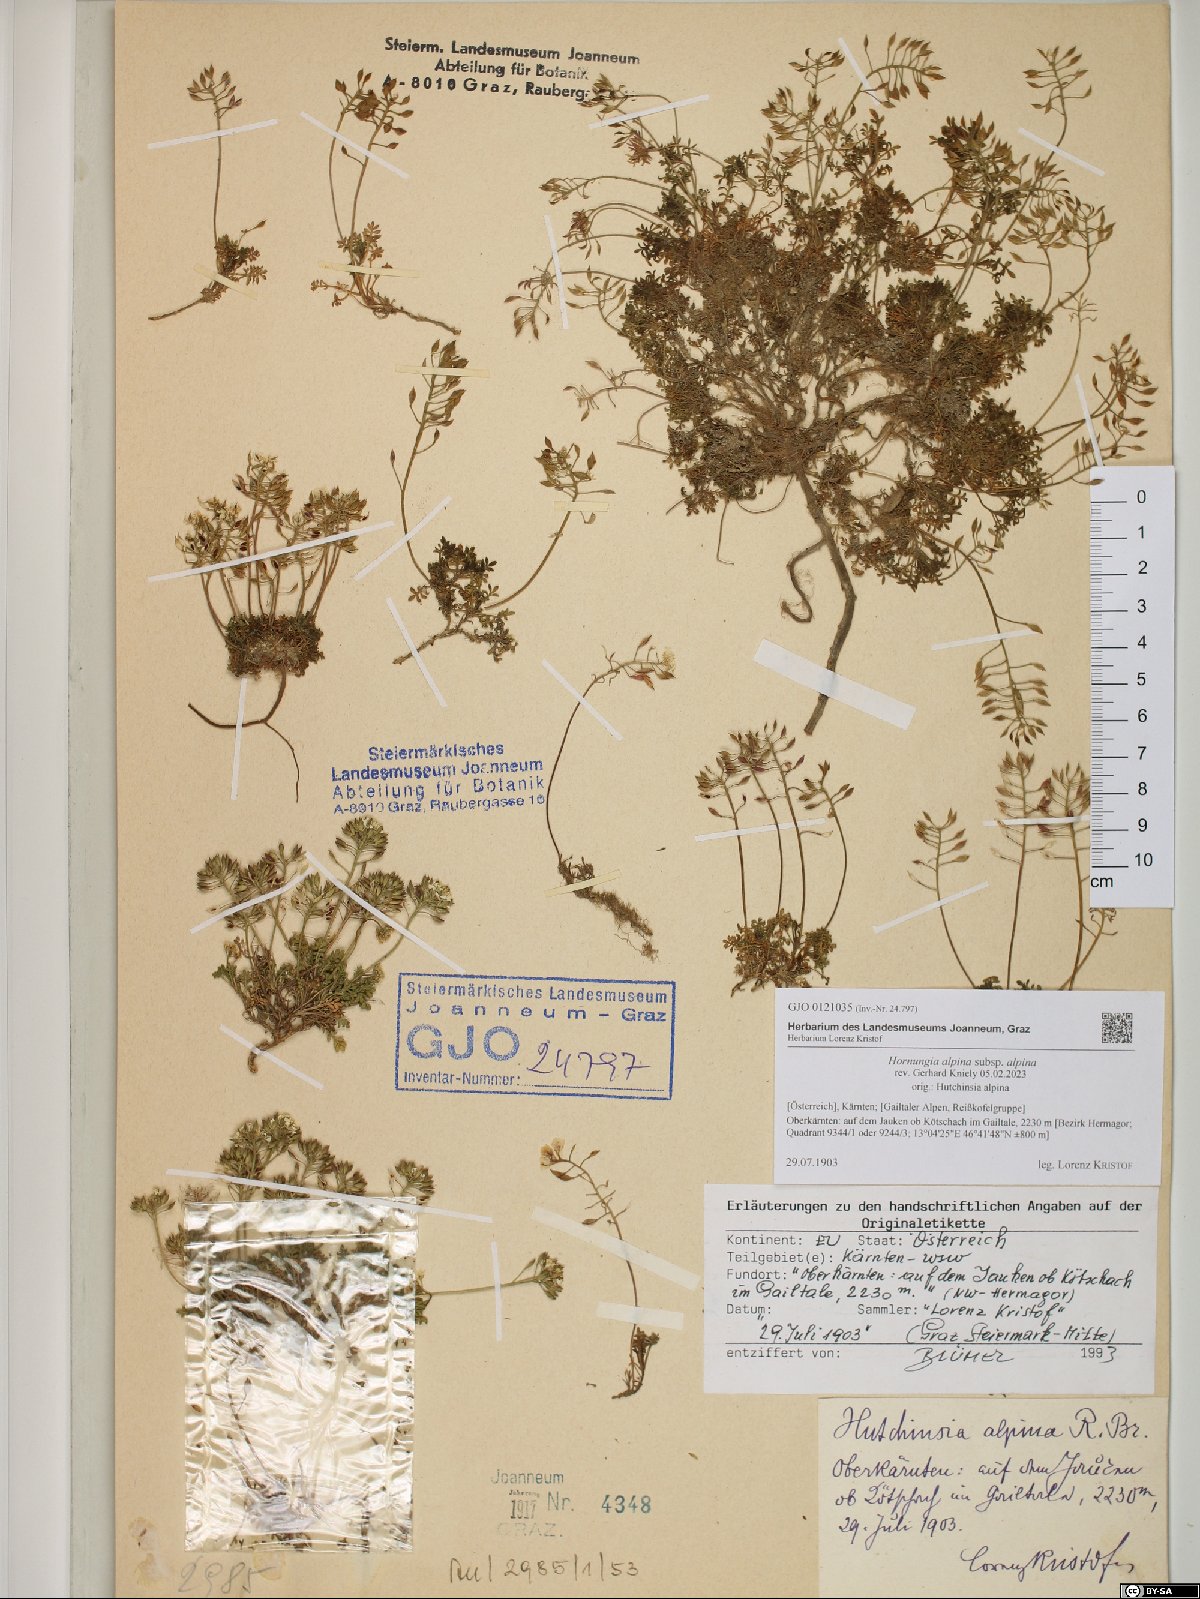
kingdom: Plantae
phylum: Tracheophyta
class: Magnoliopsida
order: Brassicales
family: Brassicaceae
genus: Hornungia
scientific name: Hornungia alpina
